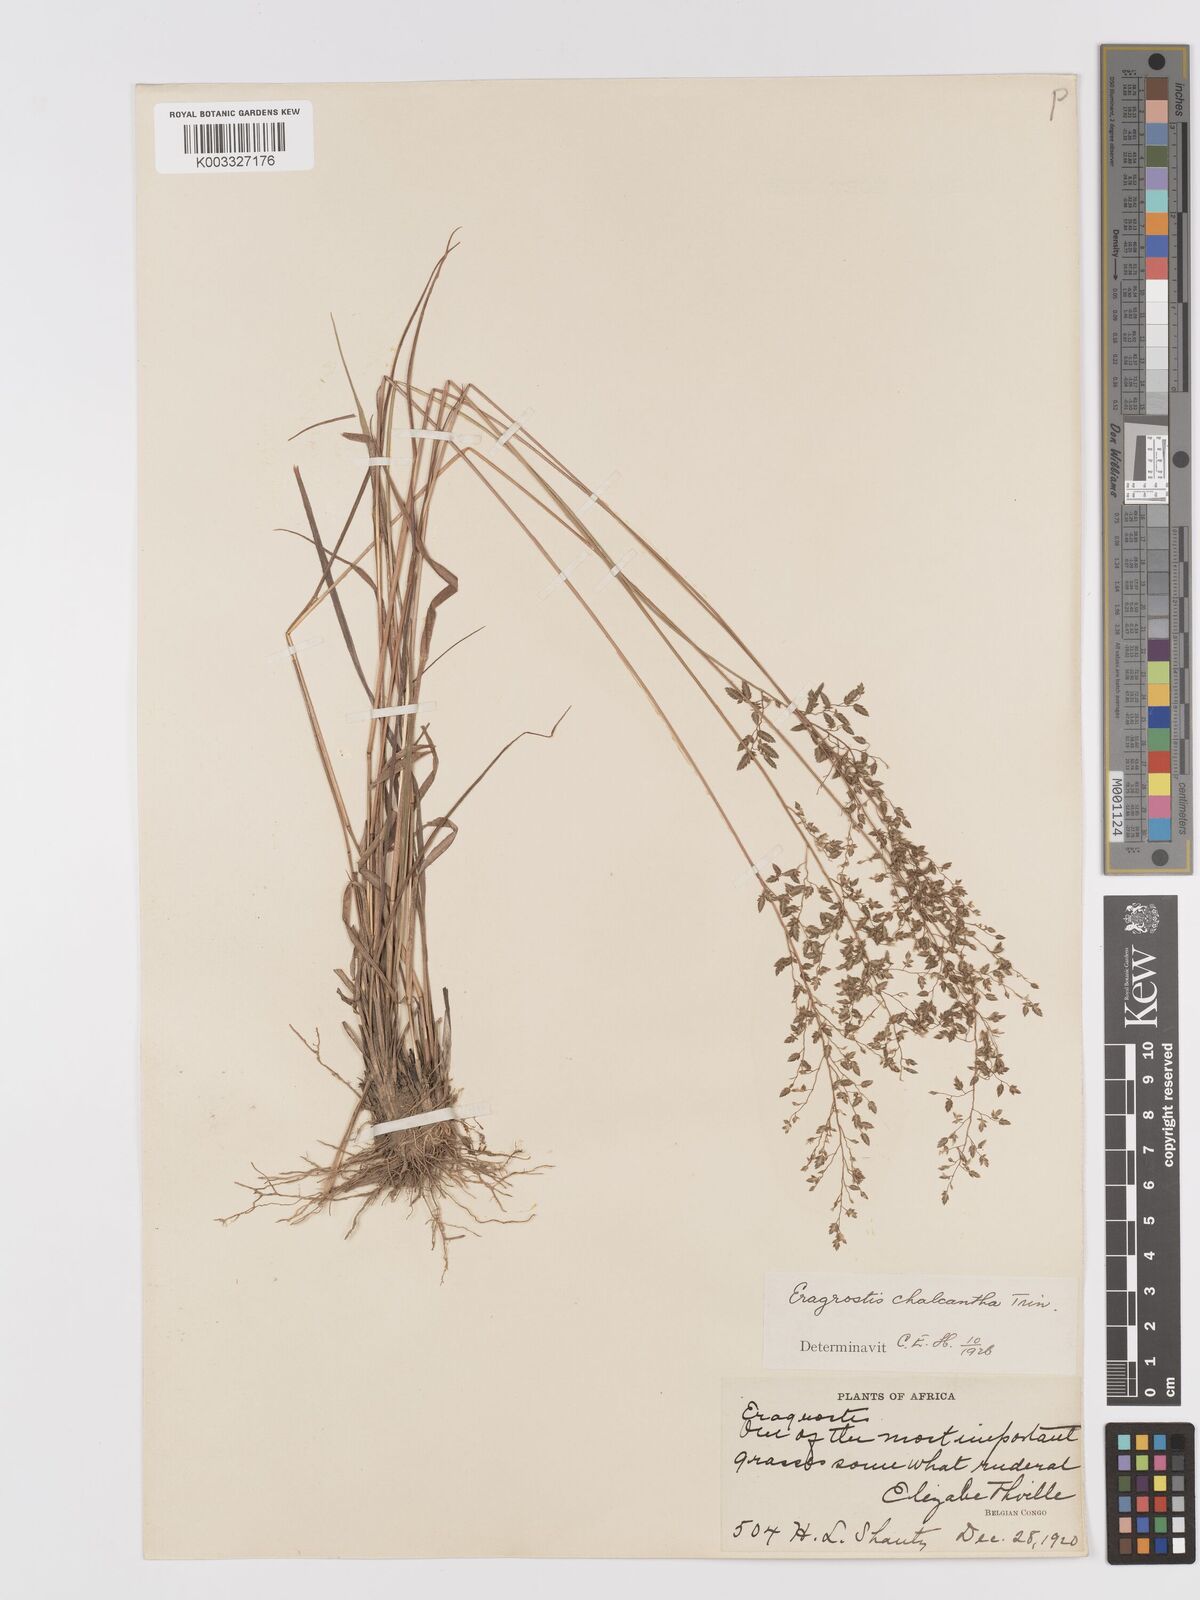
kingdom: Plantae
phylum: Tracheophyta
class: Liliopsida
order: Poales
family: Poaceae
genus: Eragrostis
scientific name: Eragrostis racemosa
